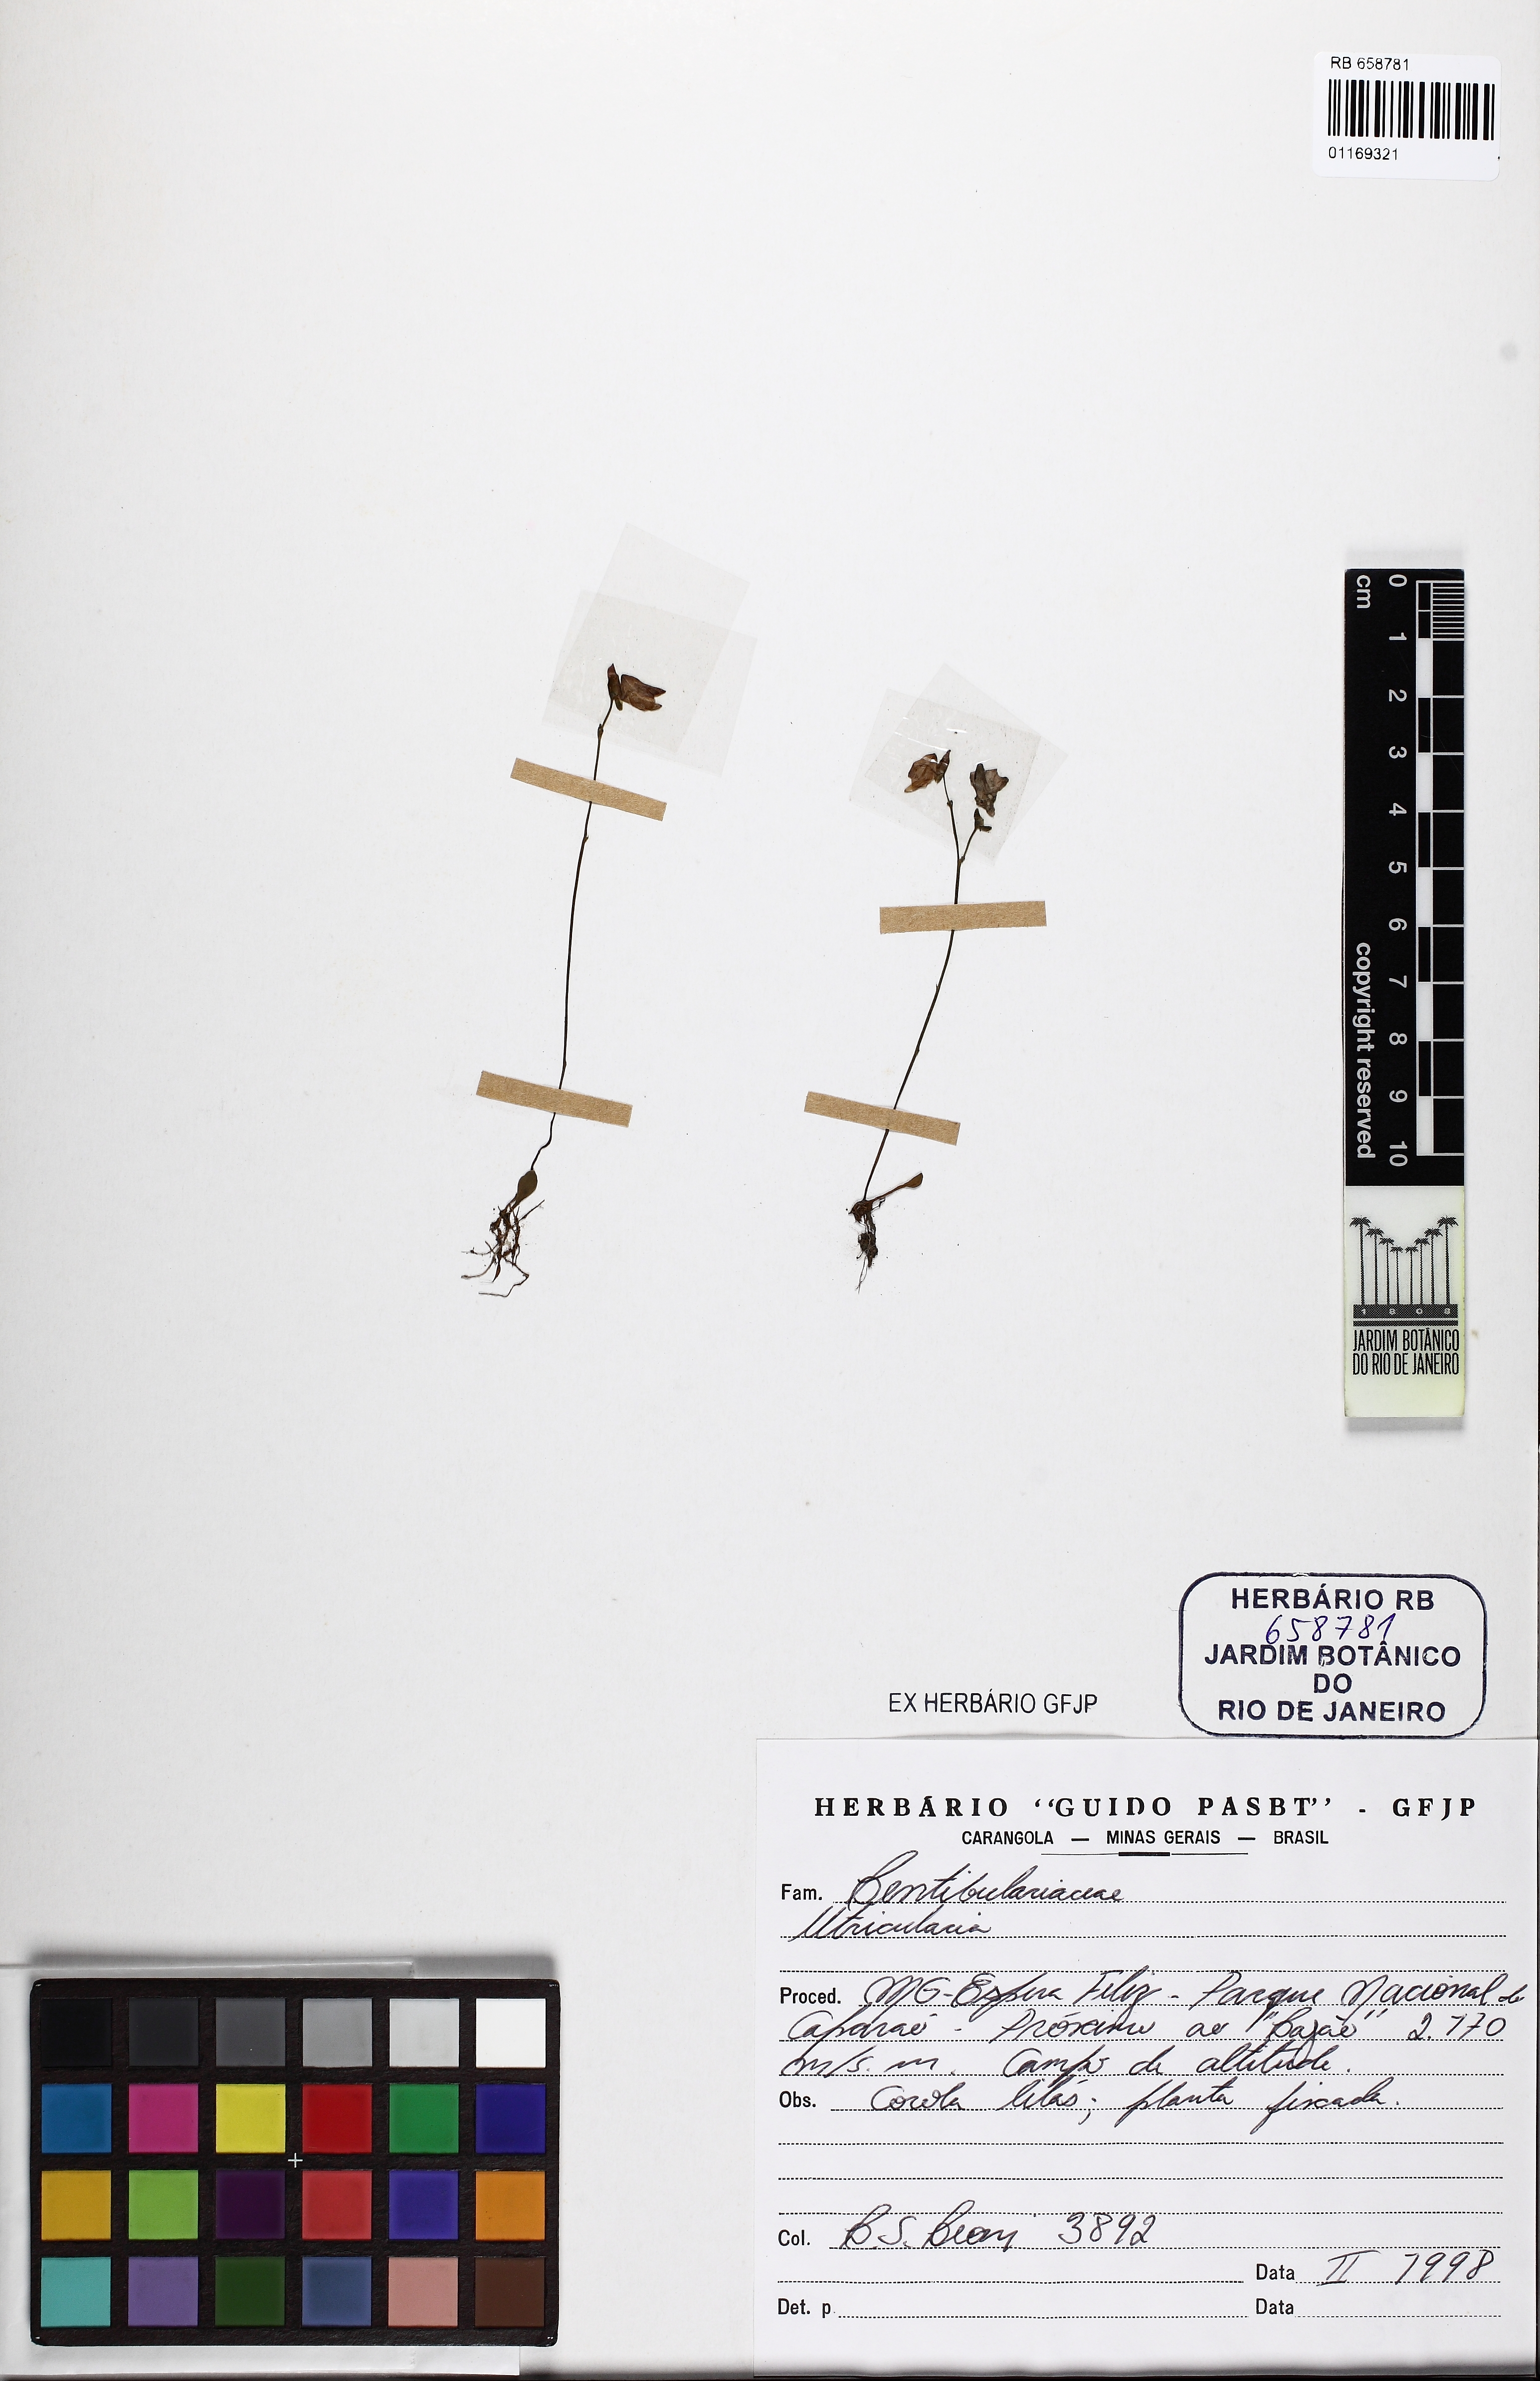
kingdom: Plantae
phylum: Tracheophyta
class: Magnoliopsida
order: Lamiales
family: Lentibulariaceae
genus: Utricularia
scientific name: Utricularia tridentata
